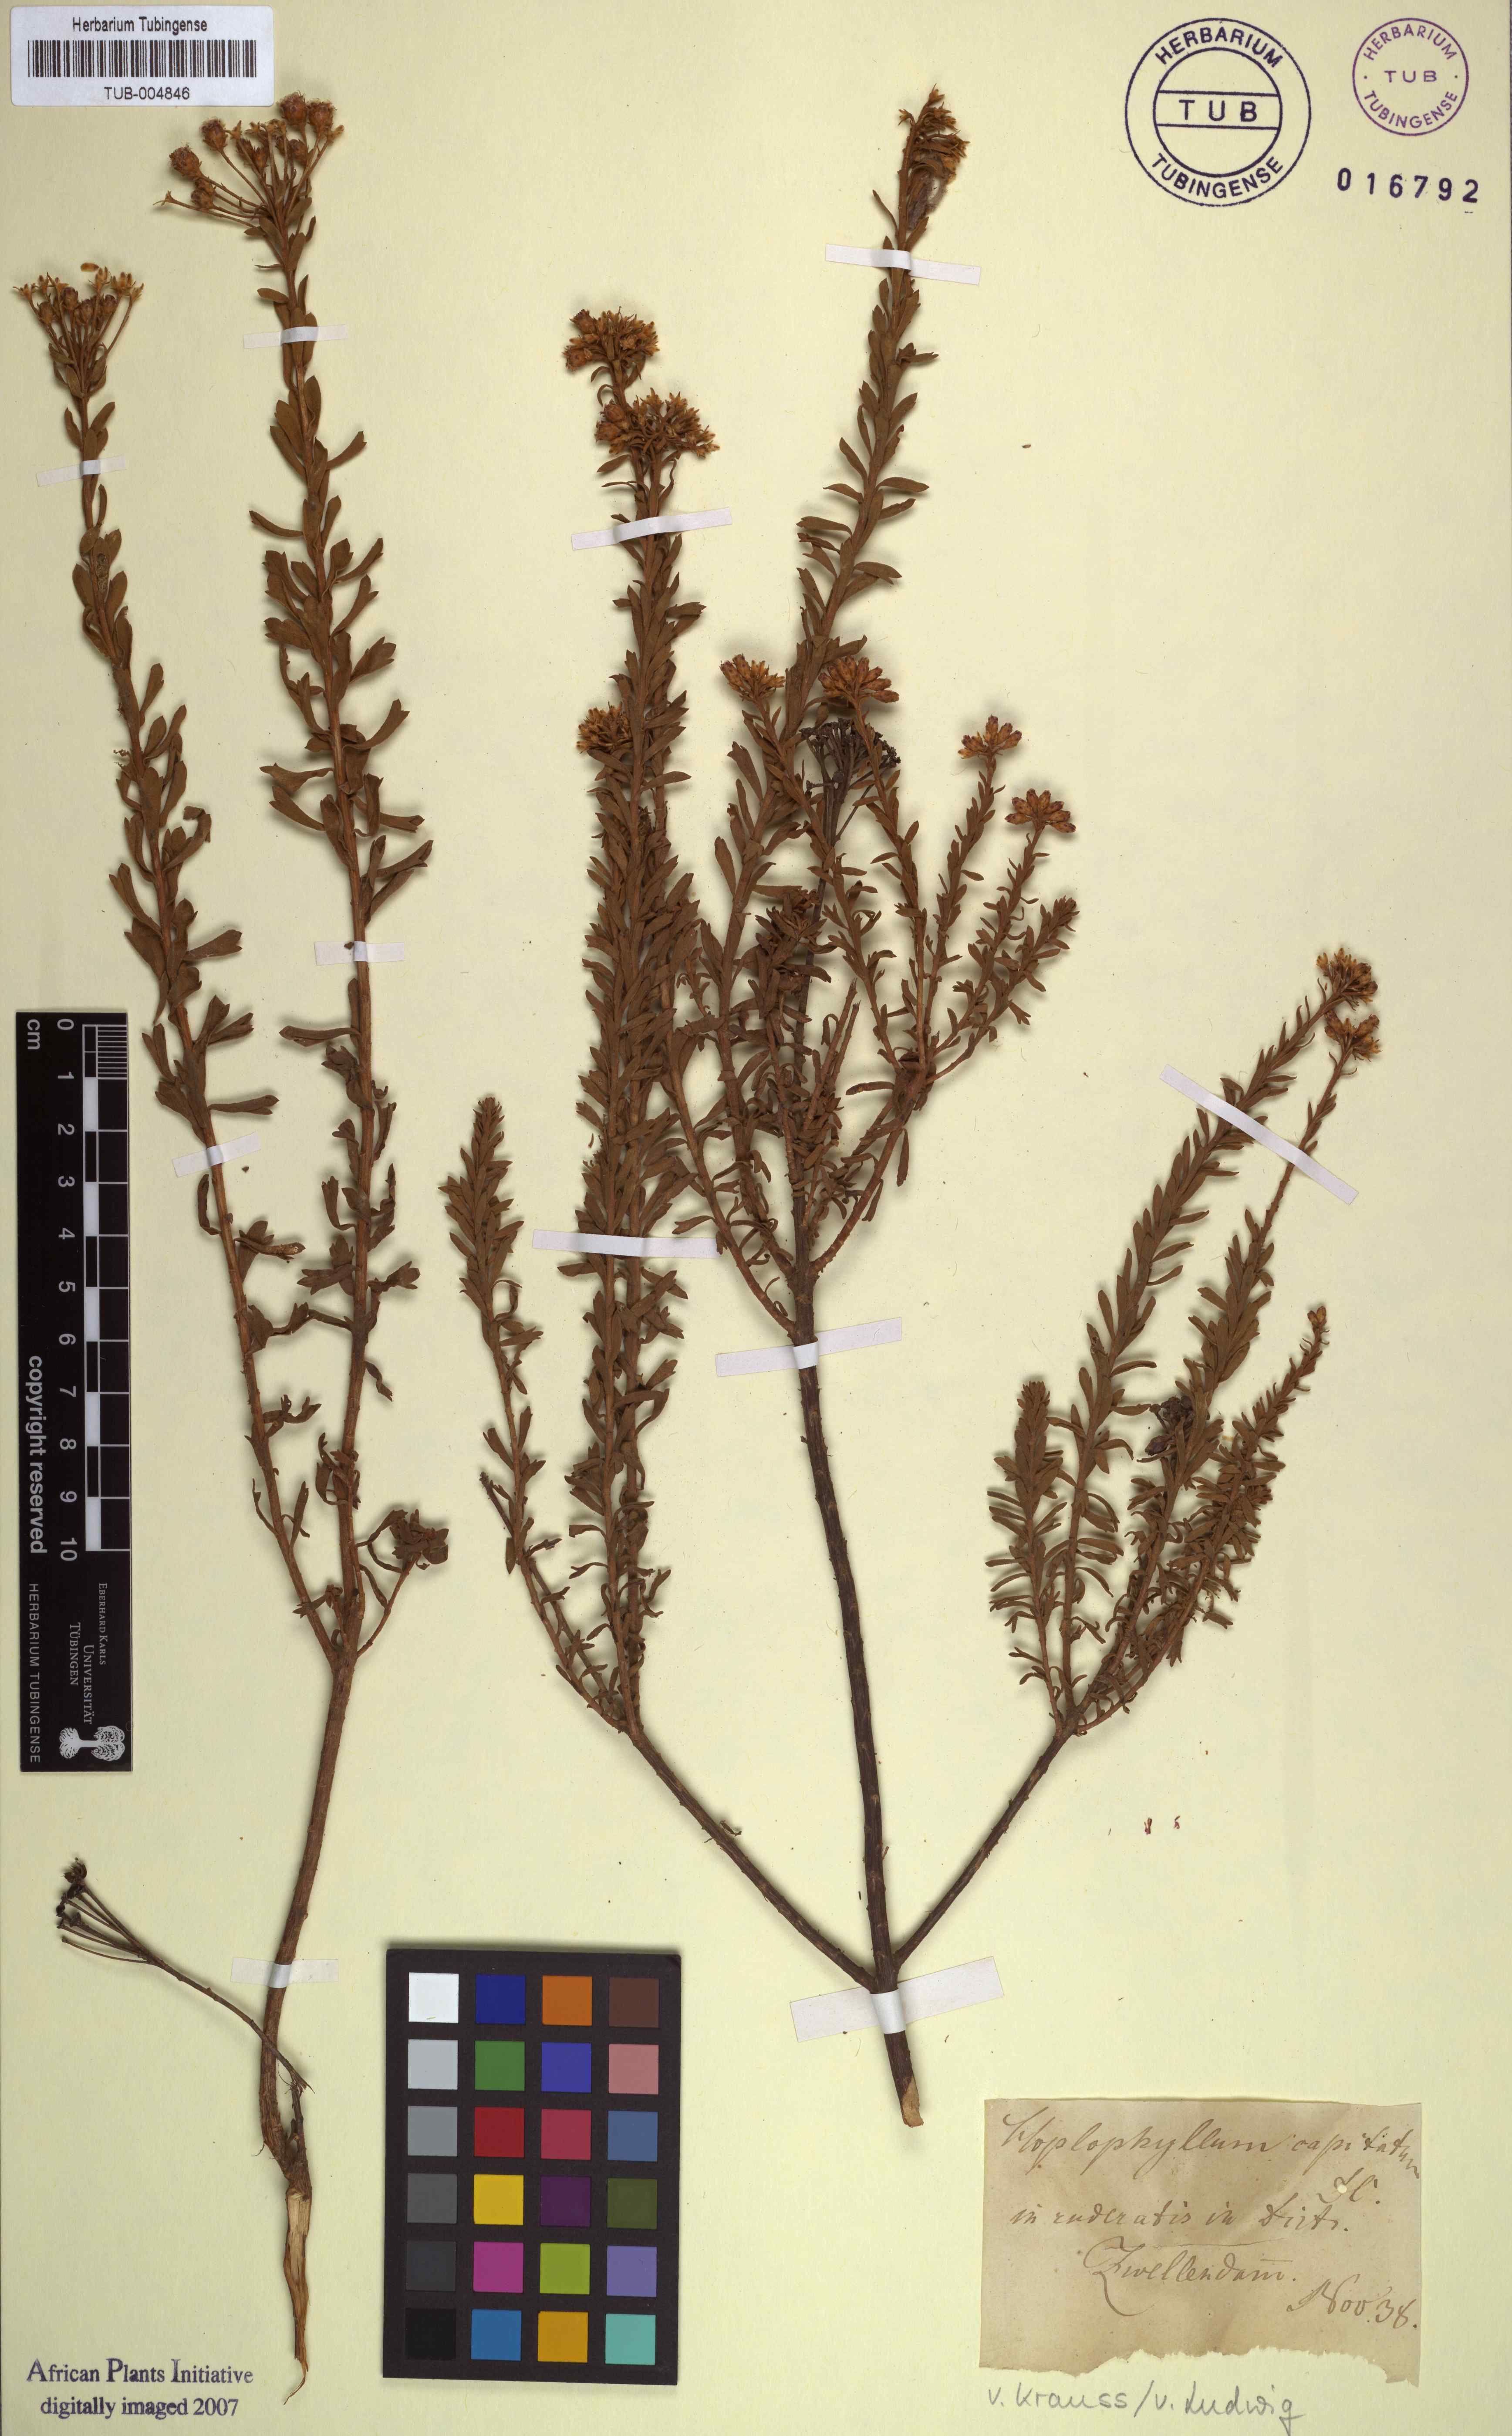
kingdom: Plantae
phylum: Tracheophyta
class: Magnoliopsida
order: Asterales
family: Asteraceae
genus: Hoplophyllum
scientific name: Hoplophyllum
